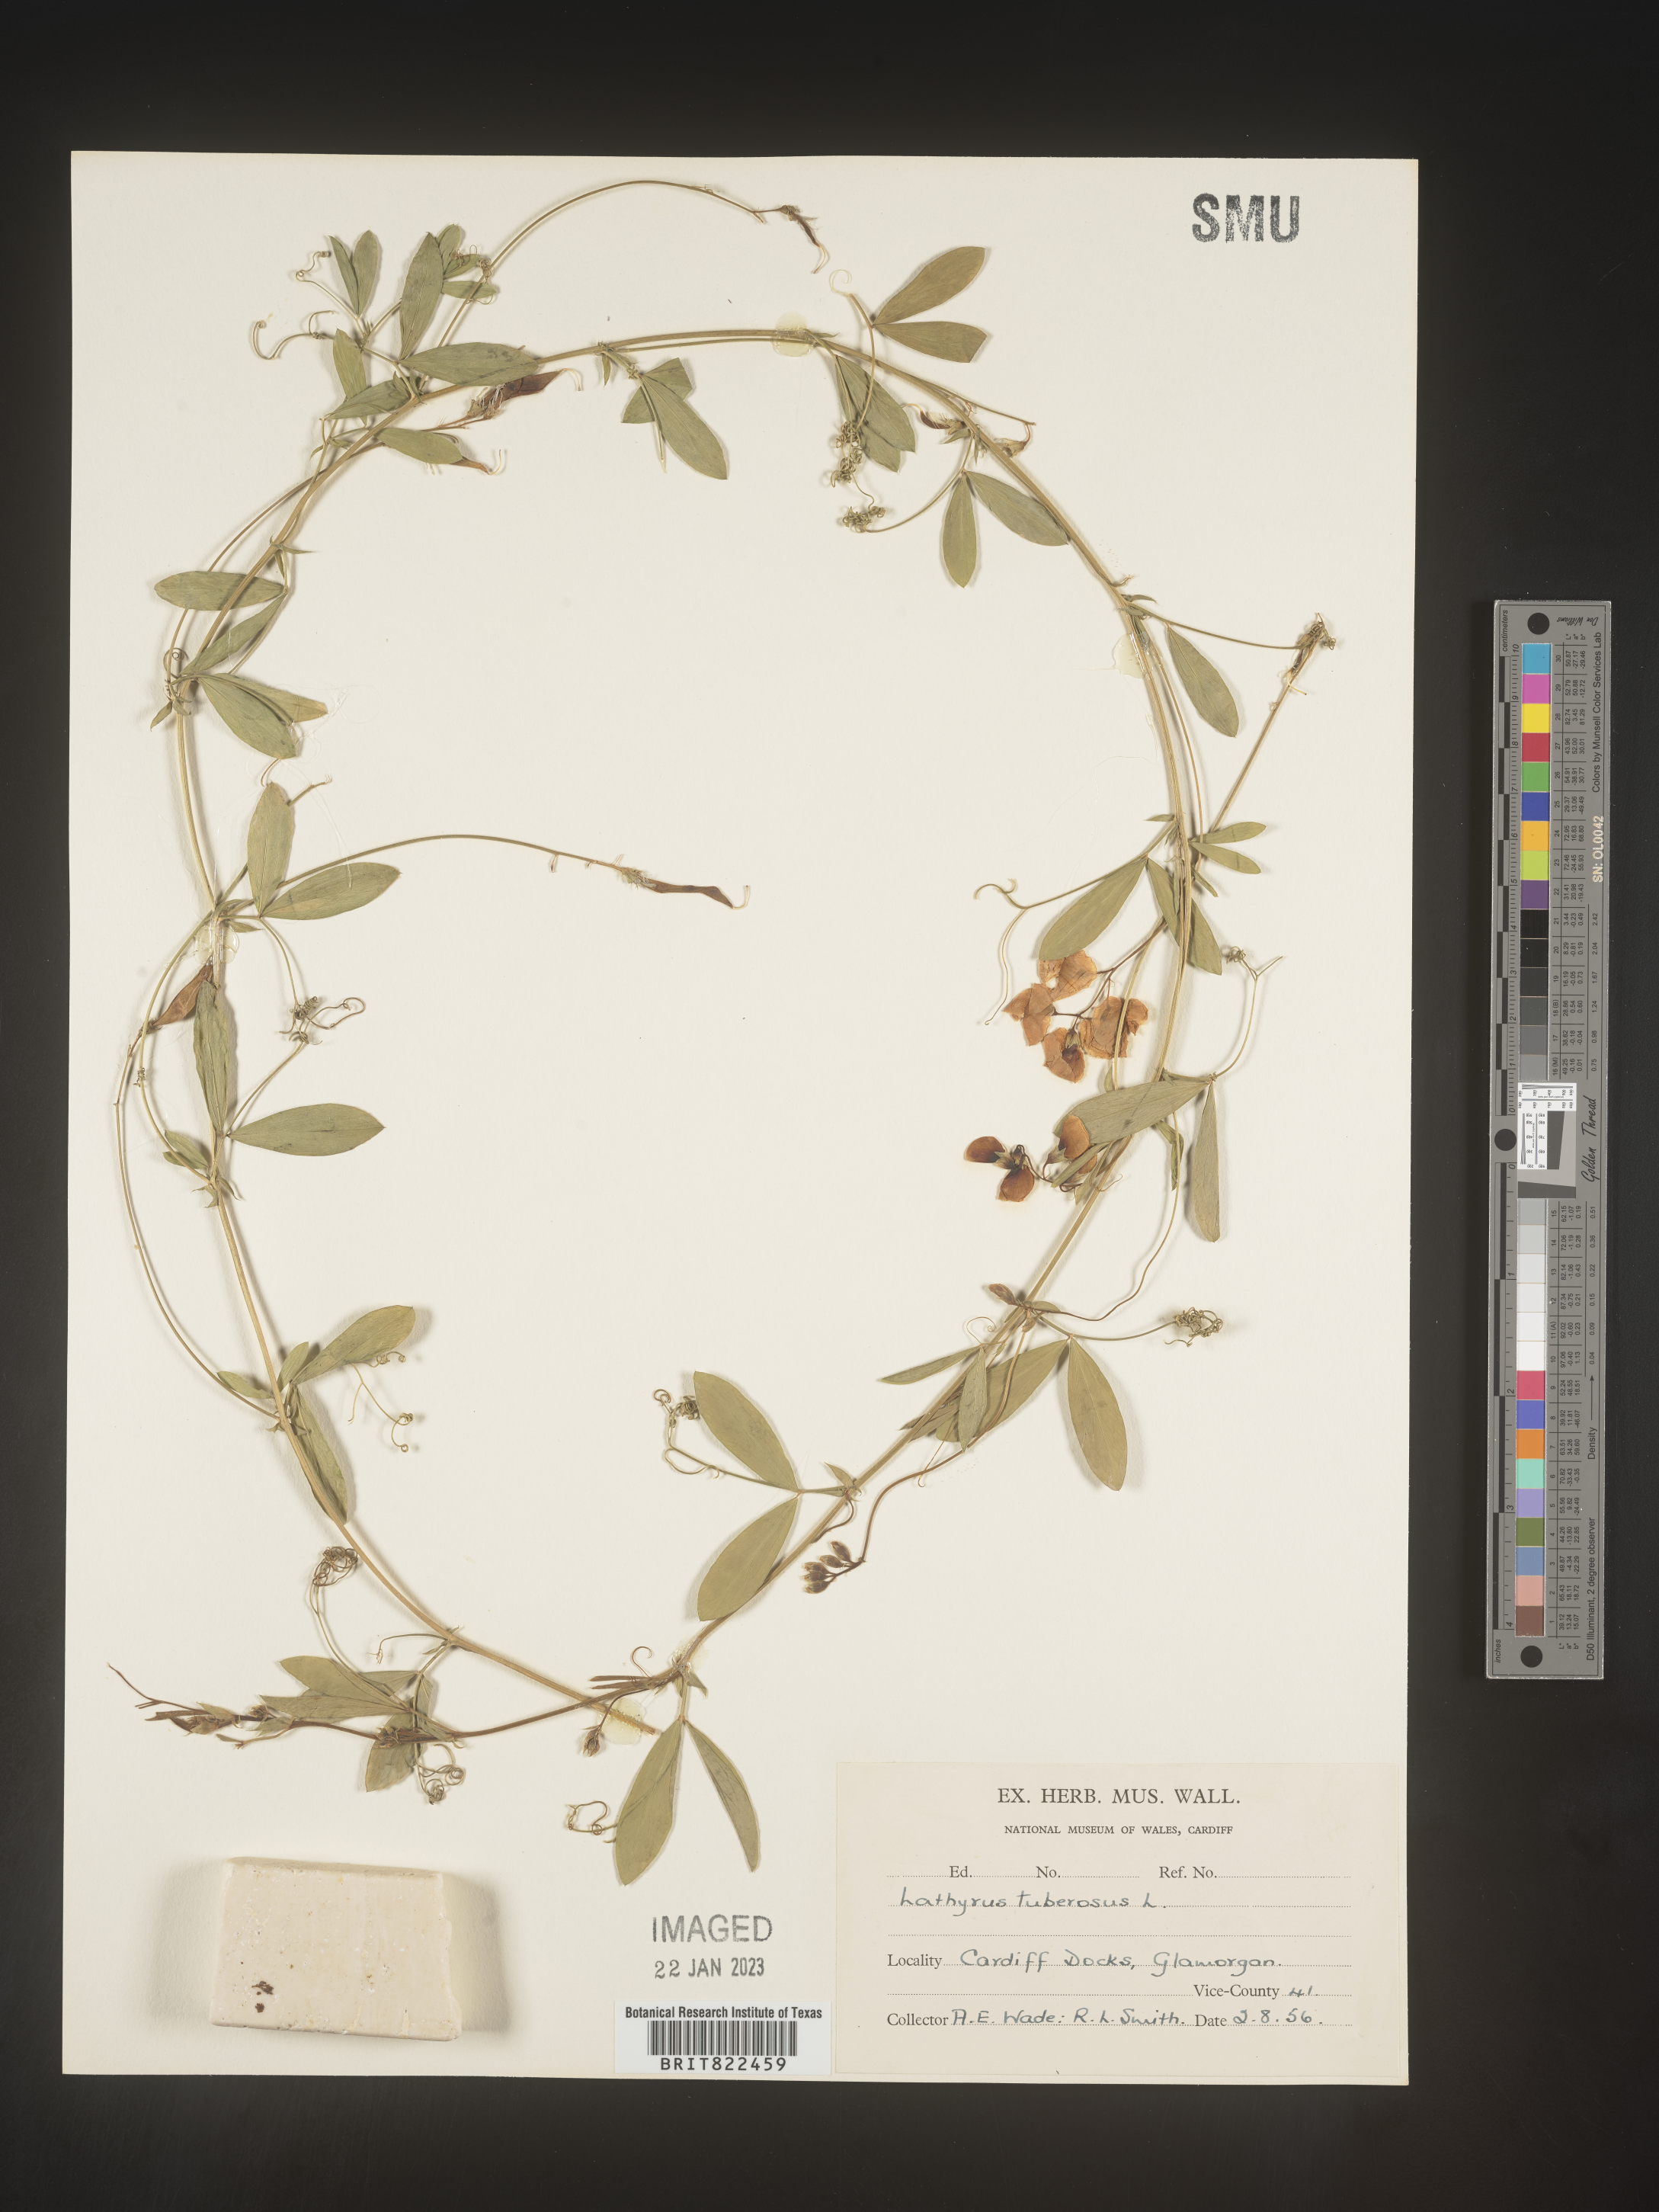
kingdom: Plantae
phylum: Tracheophyta
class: Magnoliopsida
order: Fabales
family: Fabaceae
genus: Lathyrus
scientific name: Lathyrus
